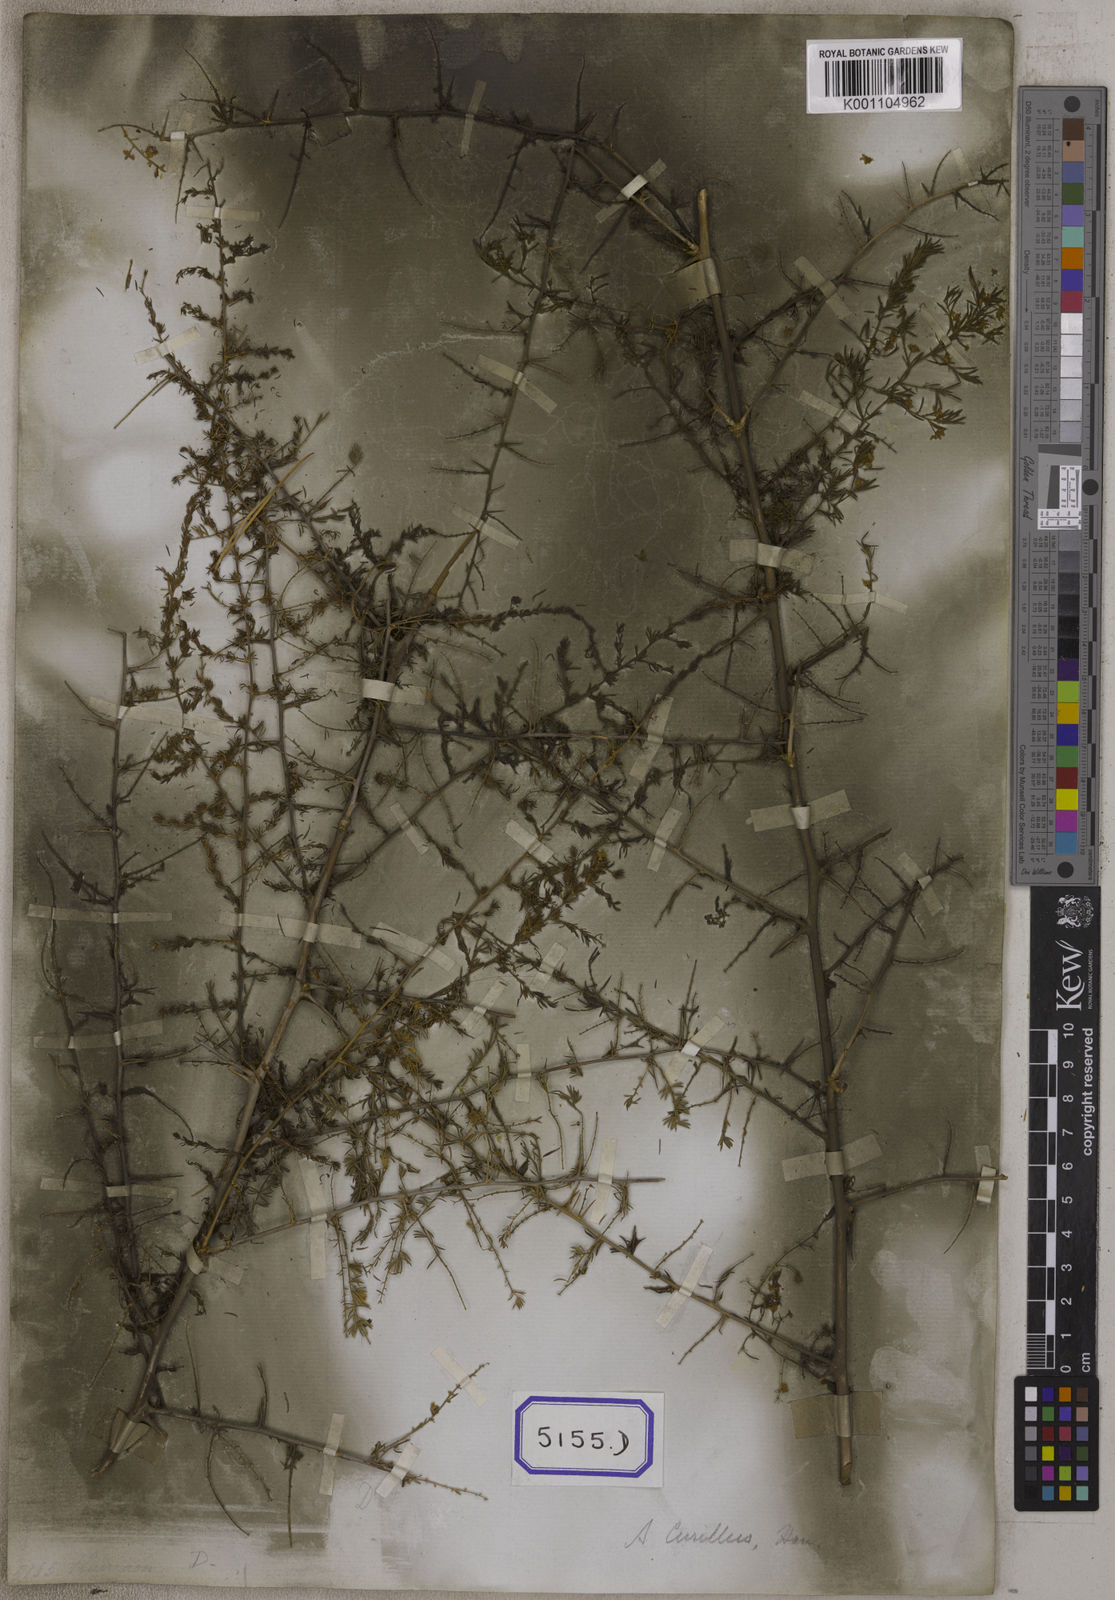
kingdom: Plantae
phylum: Tracheophyta
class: Liliopsida
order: Asparagales
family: Asparagaceae
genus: Asparagus
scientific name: Asparagus
